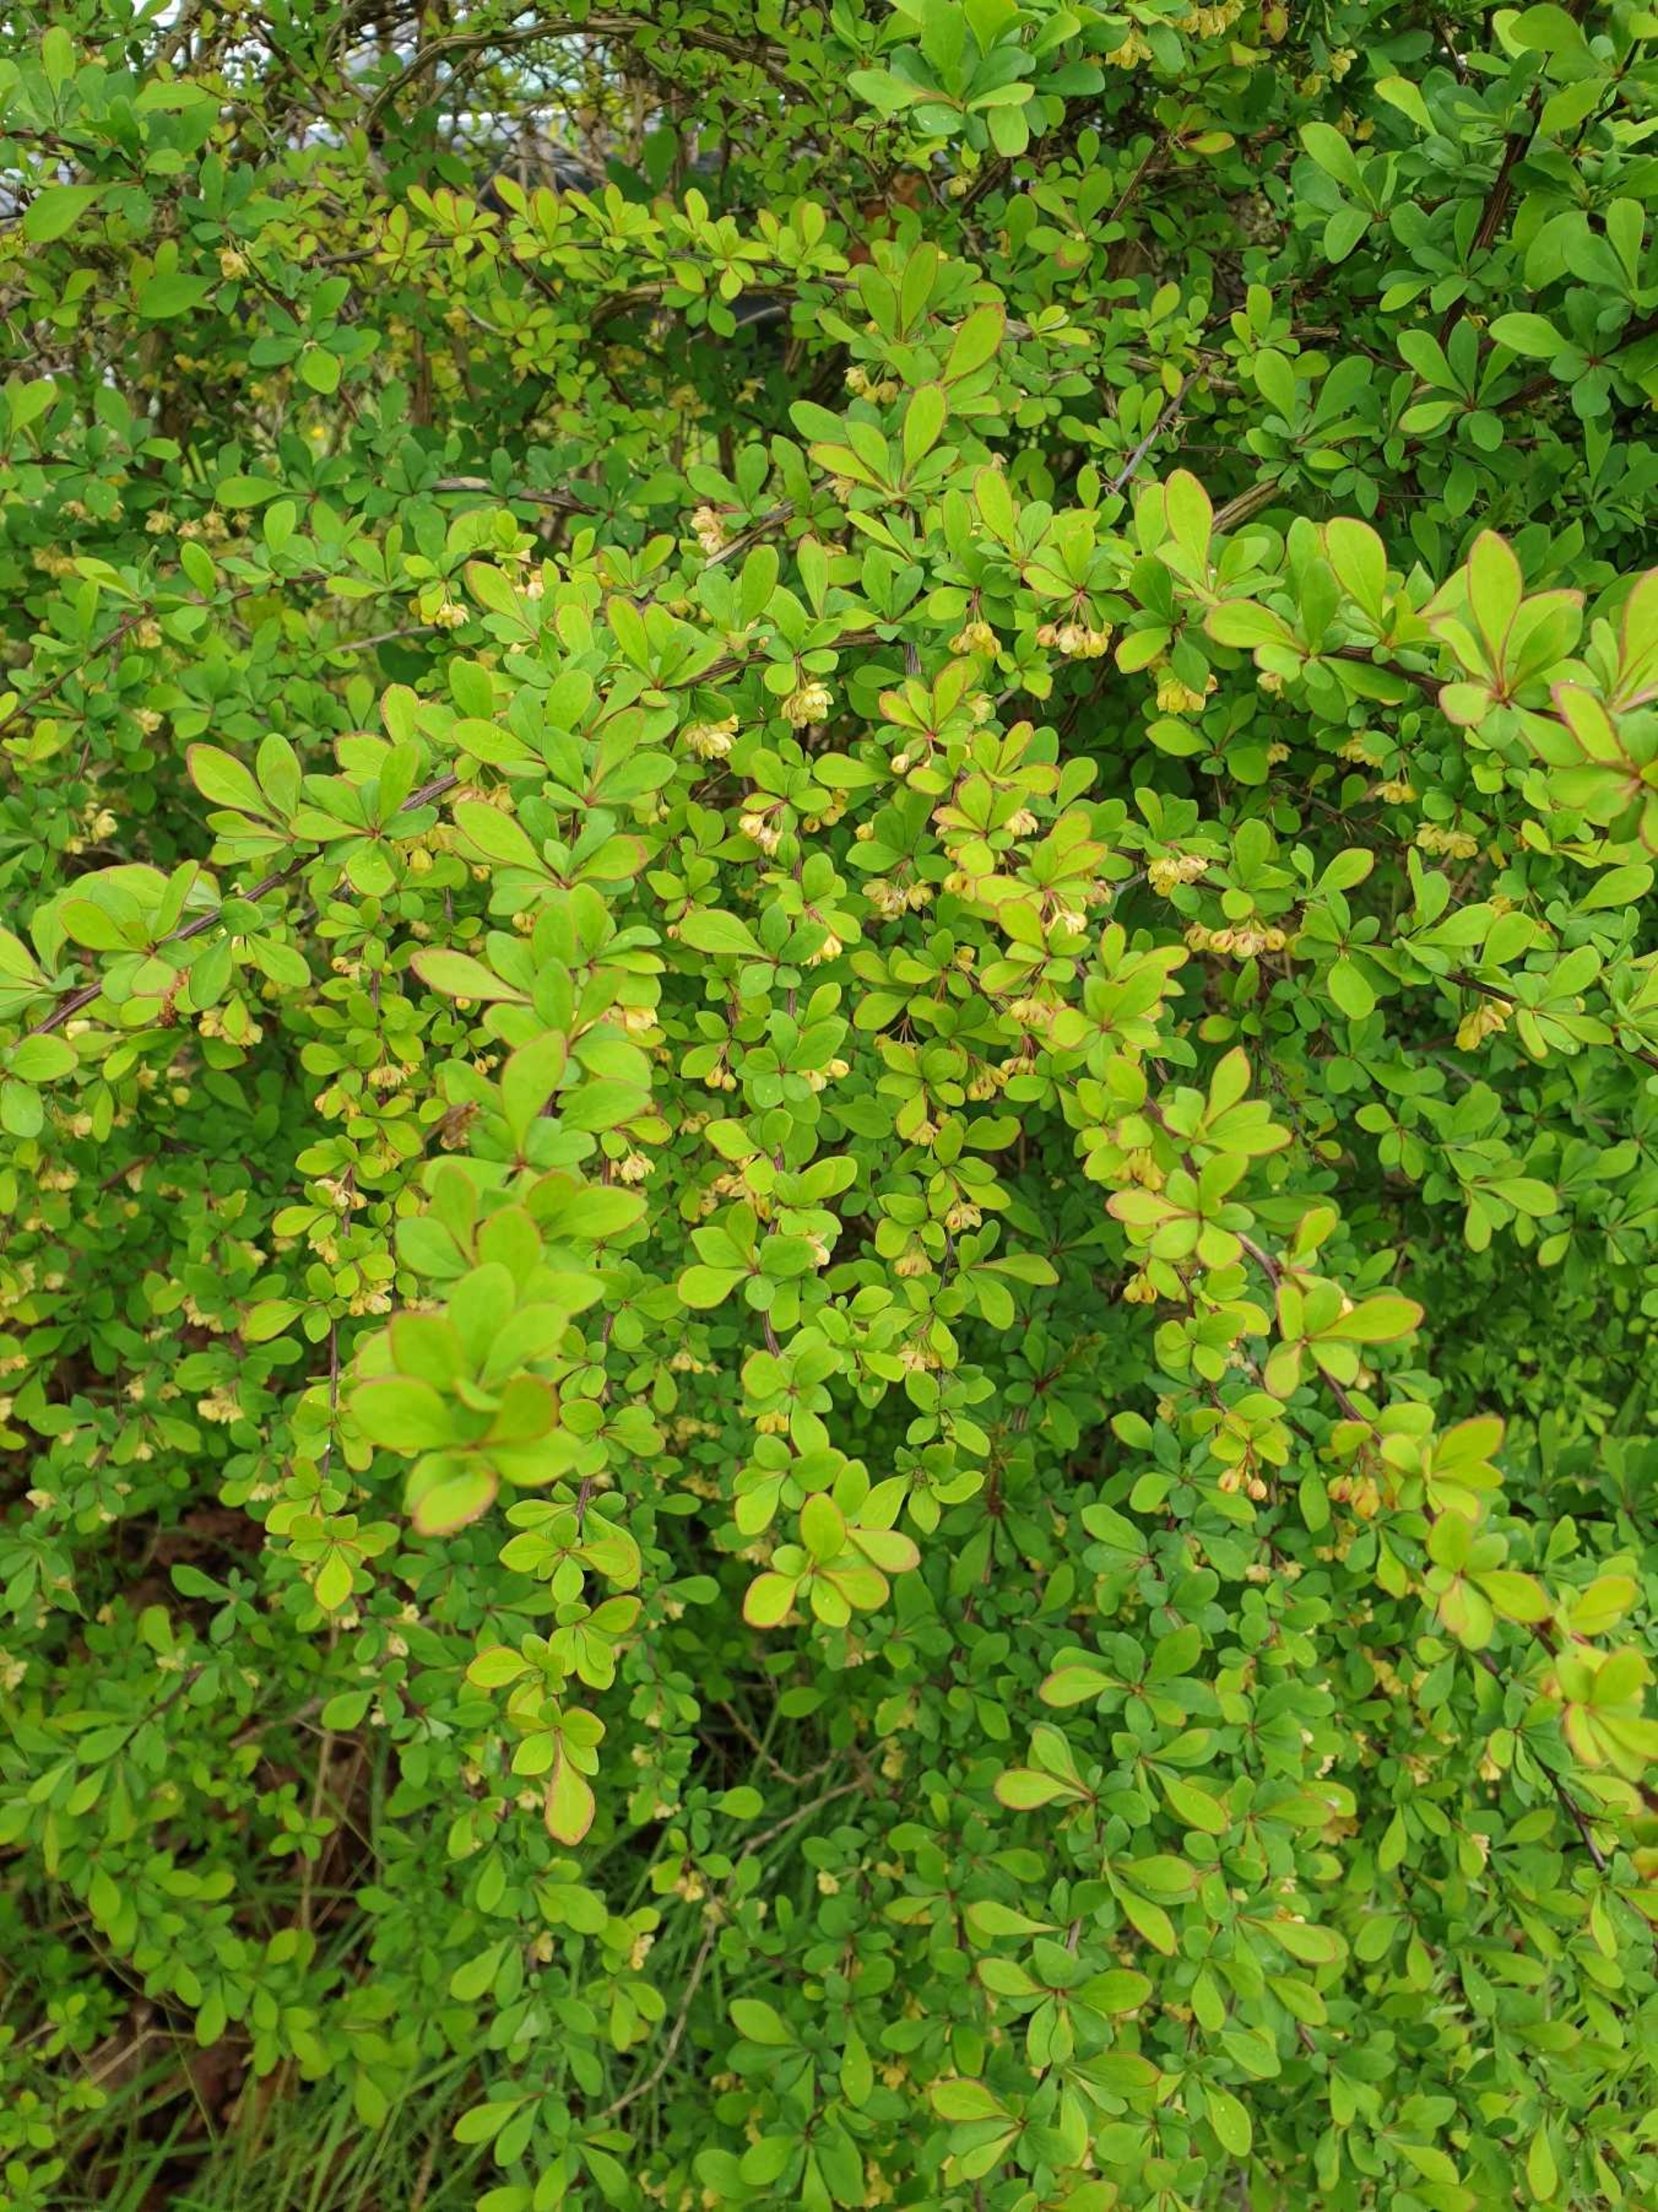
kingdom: Plantae
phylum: Tracheophyta
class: Magnoliopsida
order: Ranunculales
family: Berberidaceae
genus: Berberis
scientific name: Berberis thunbergii
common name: Hæk-berberis
